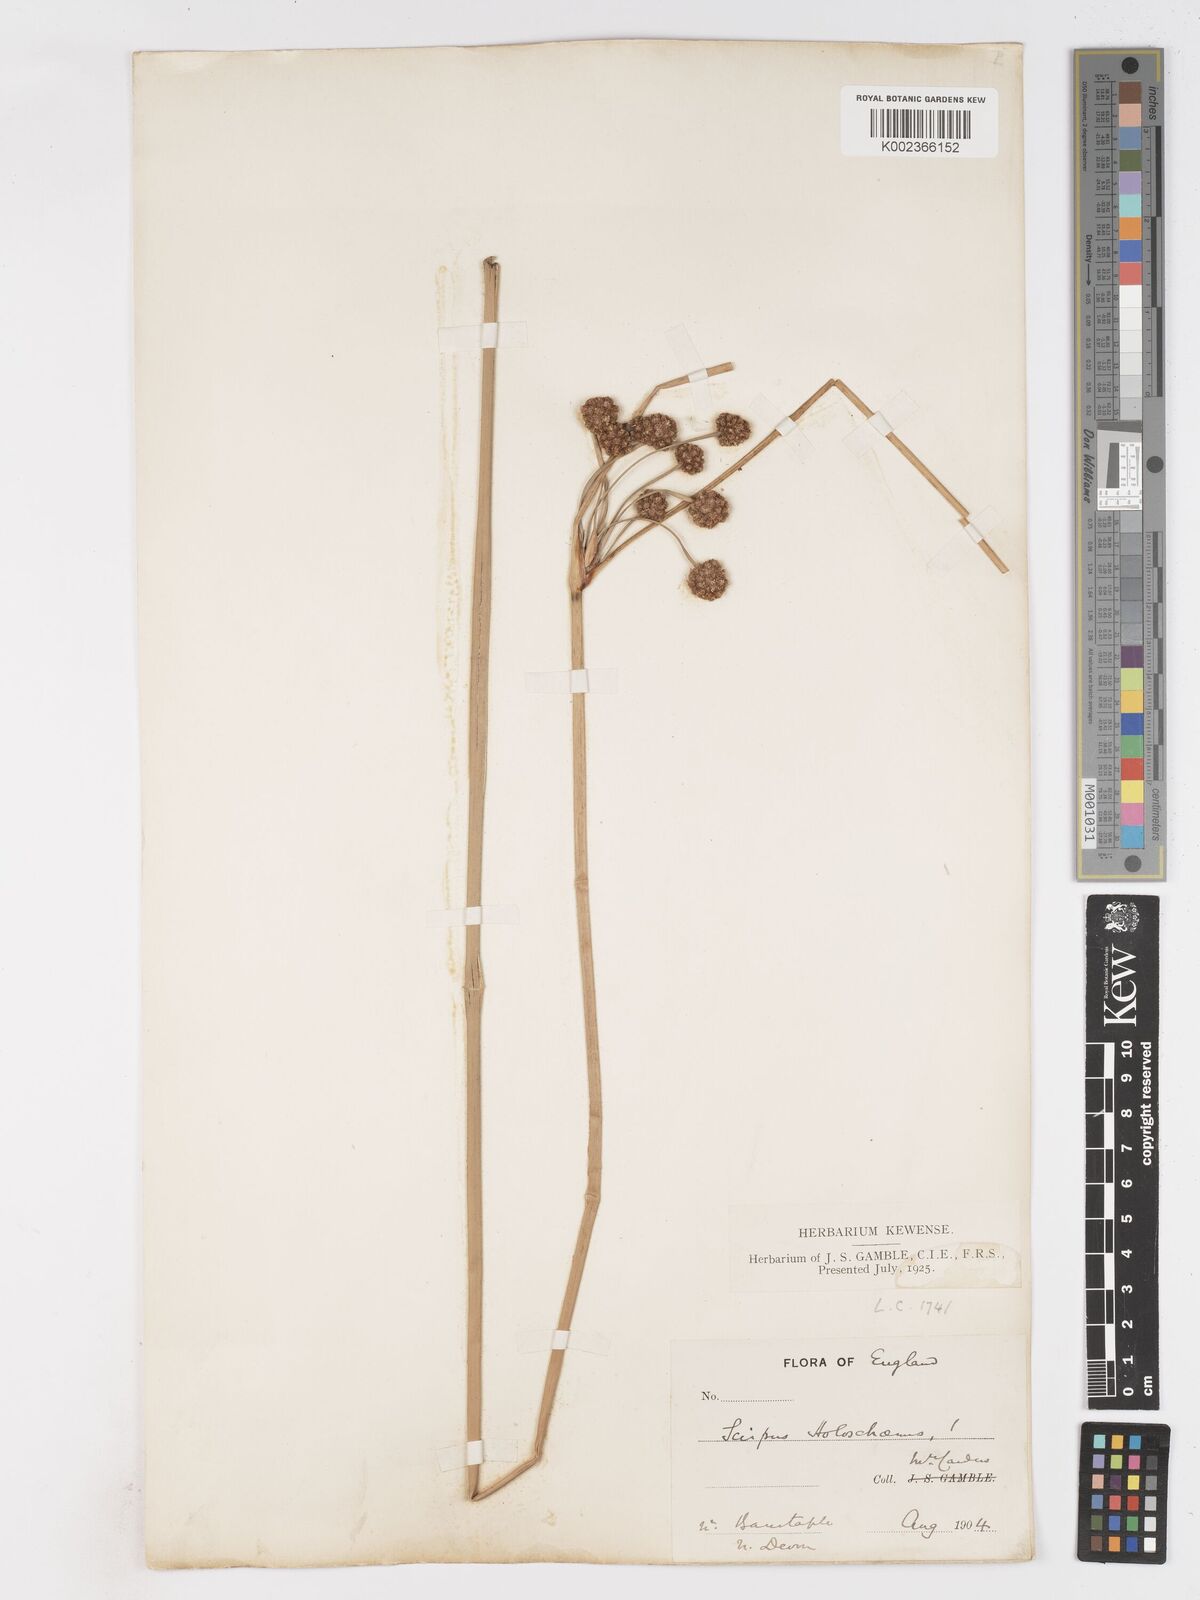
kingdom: Plantae
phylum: Tracheophyta
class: Liliopsida
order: Poales
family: Cyperaceae
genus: Scirpoides
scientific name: Scirpoides holoschoenus
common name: Round-headed club-rush
